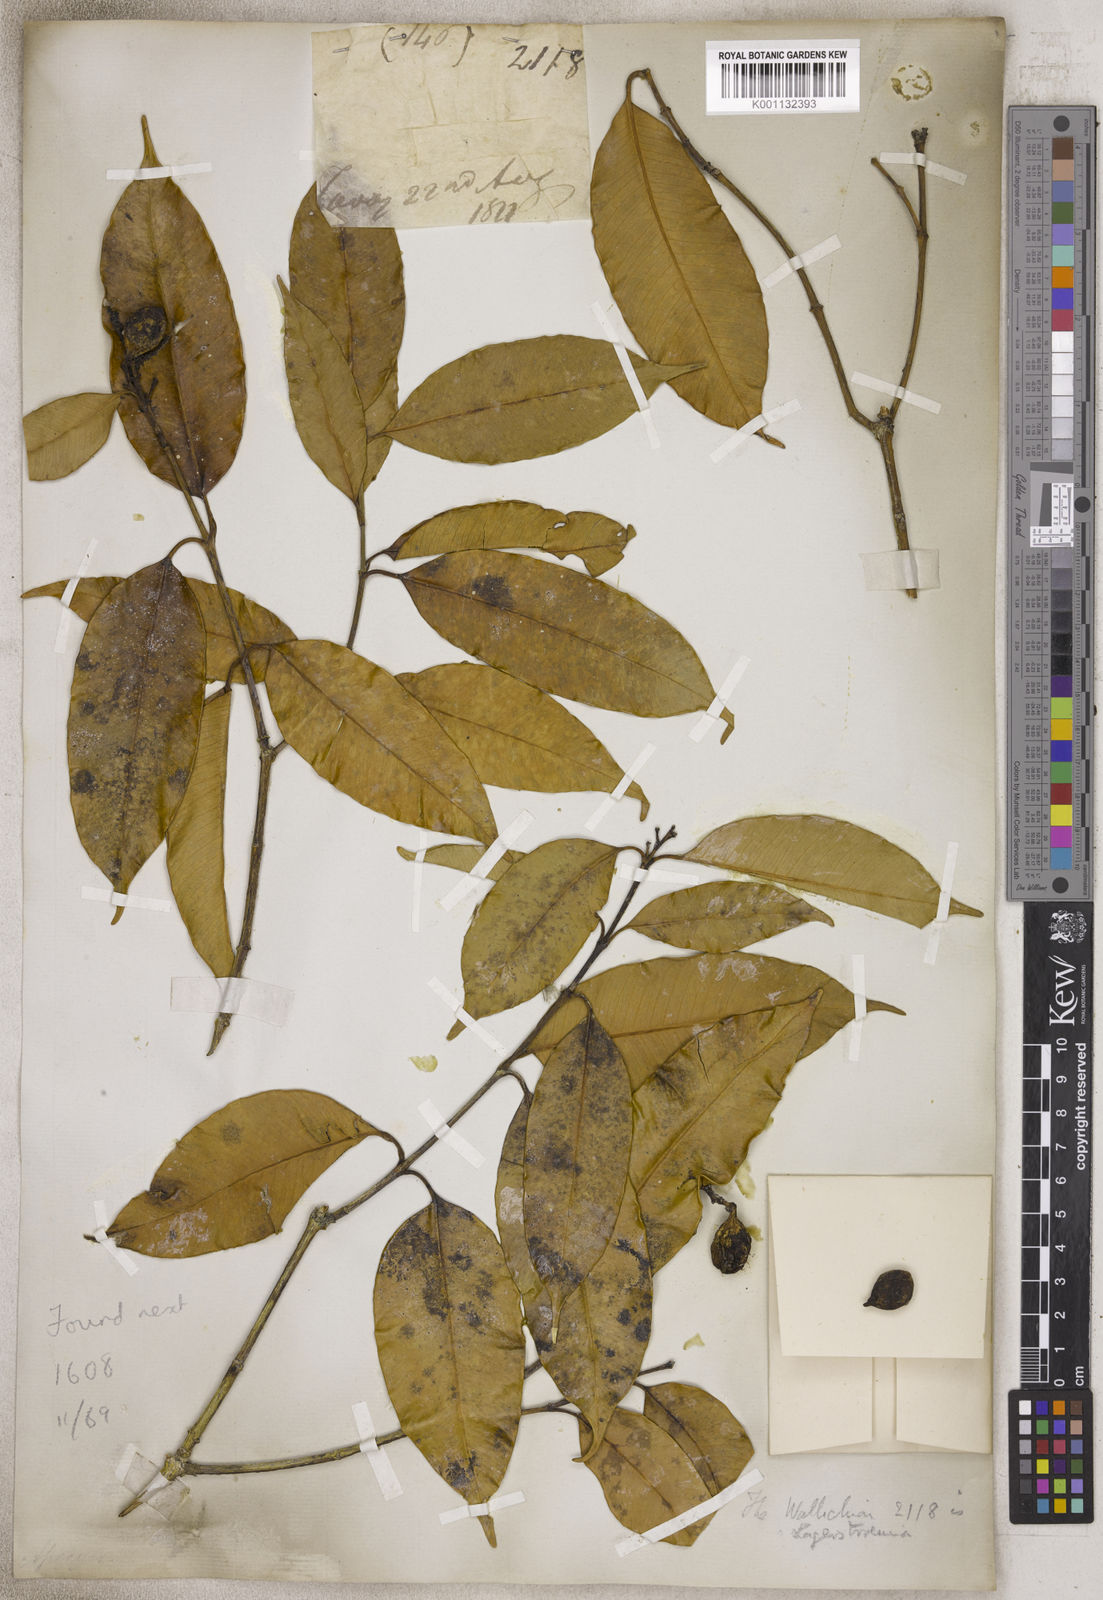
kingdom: Plantae
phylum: Tracheophyta
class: Magnoliopsida
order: Gentianales
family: Apocynaceae
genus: Hunteria
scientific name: Hunteria
